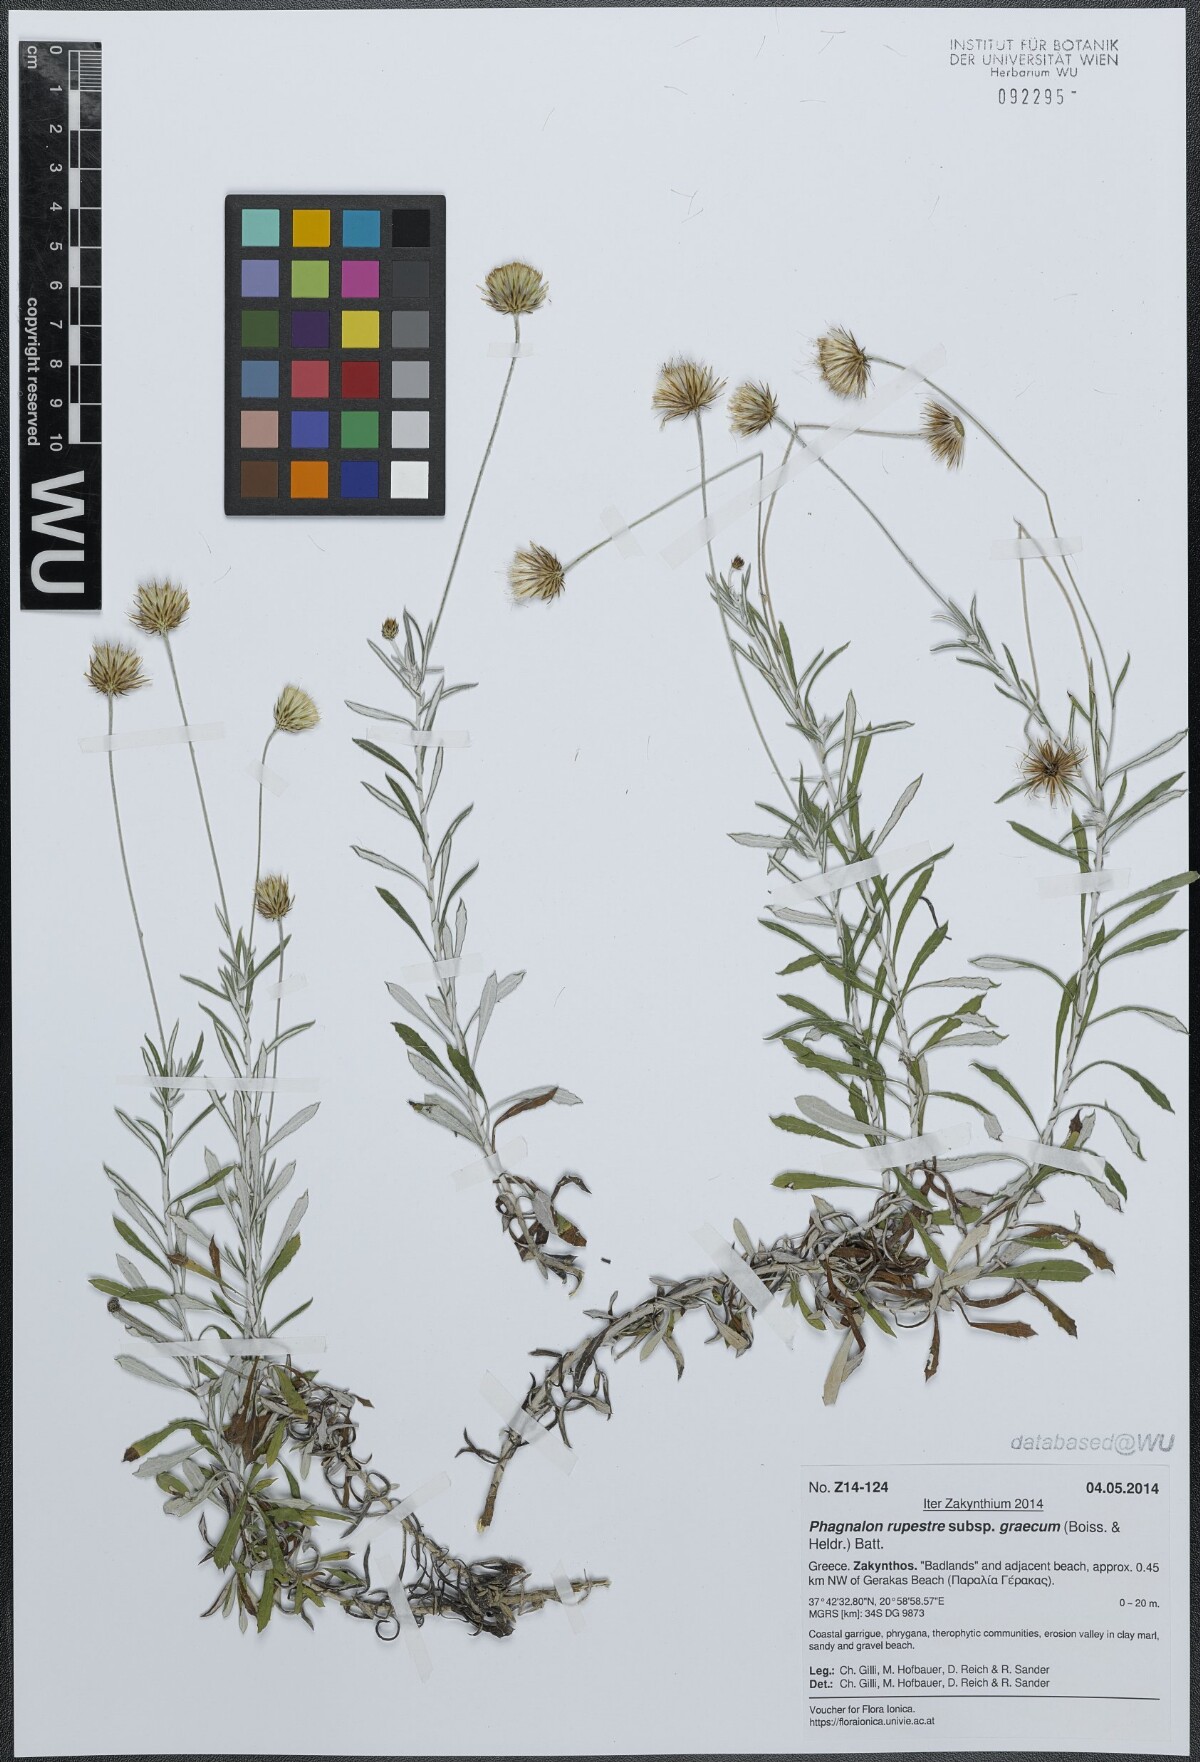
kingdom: Plantae
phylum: Tracheophyta
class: Magnoliopsida
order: Asterales
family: Asteraceae
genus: Phagnalon
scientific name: Phagnalon graecum
